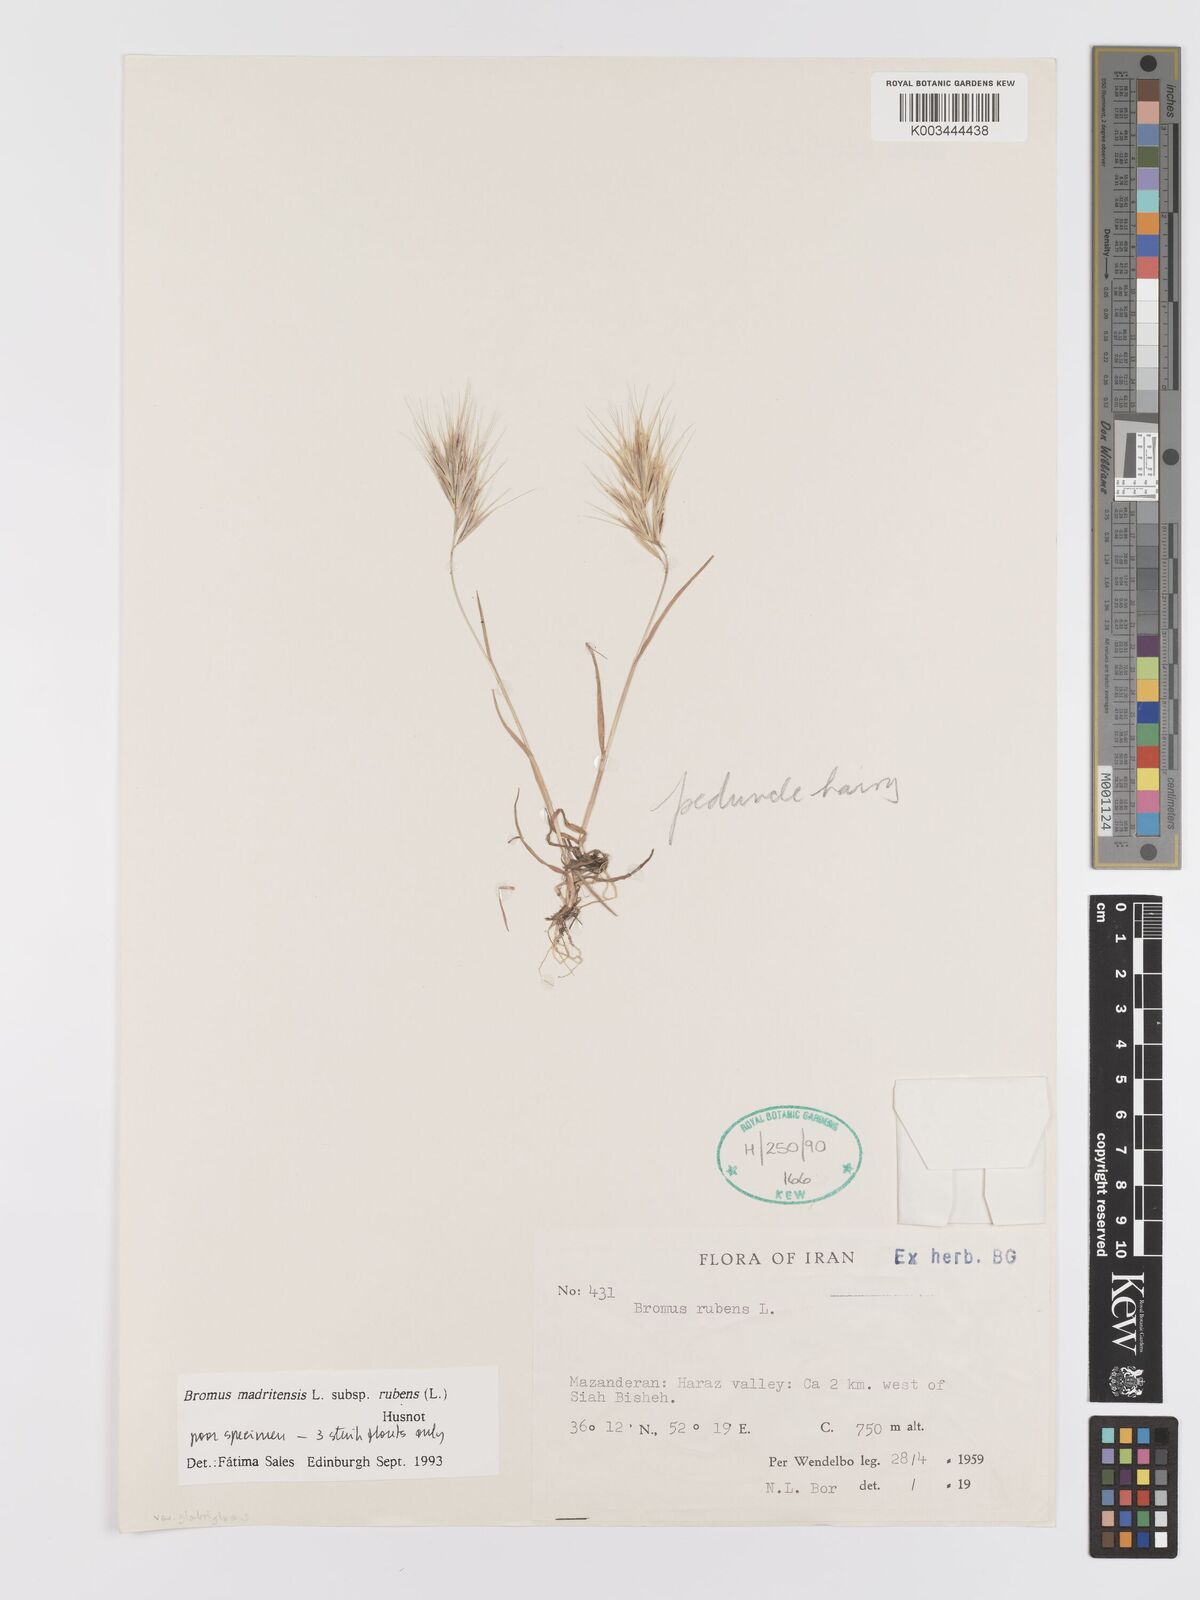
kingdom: Plantae
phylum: Tracheophyta
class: Liliopsida
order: Poales
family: Poaceae
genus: Bromus
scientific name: Bromus rubens
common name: Red brome
